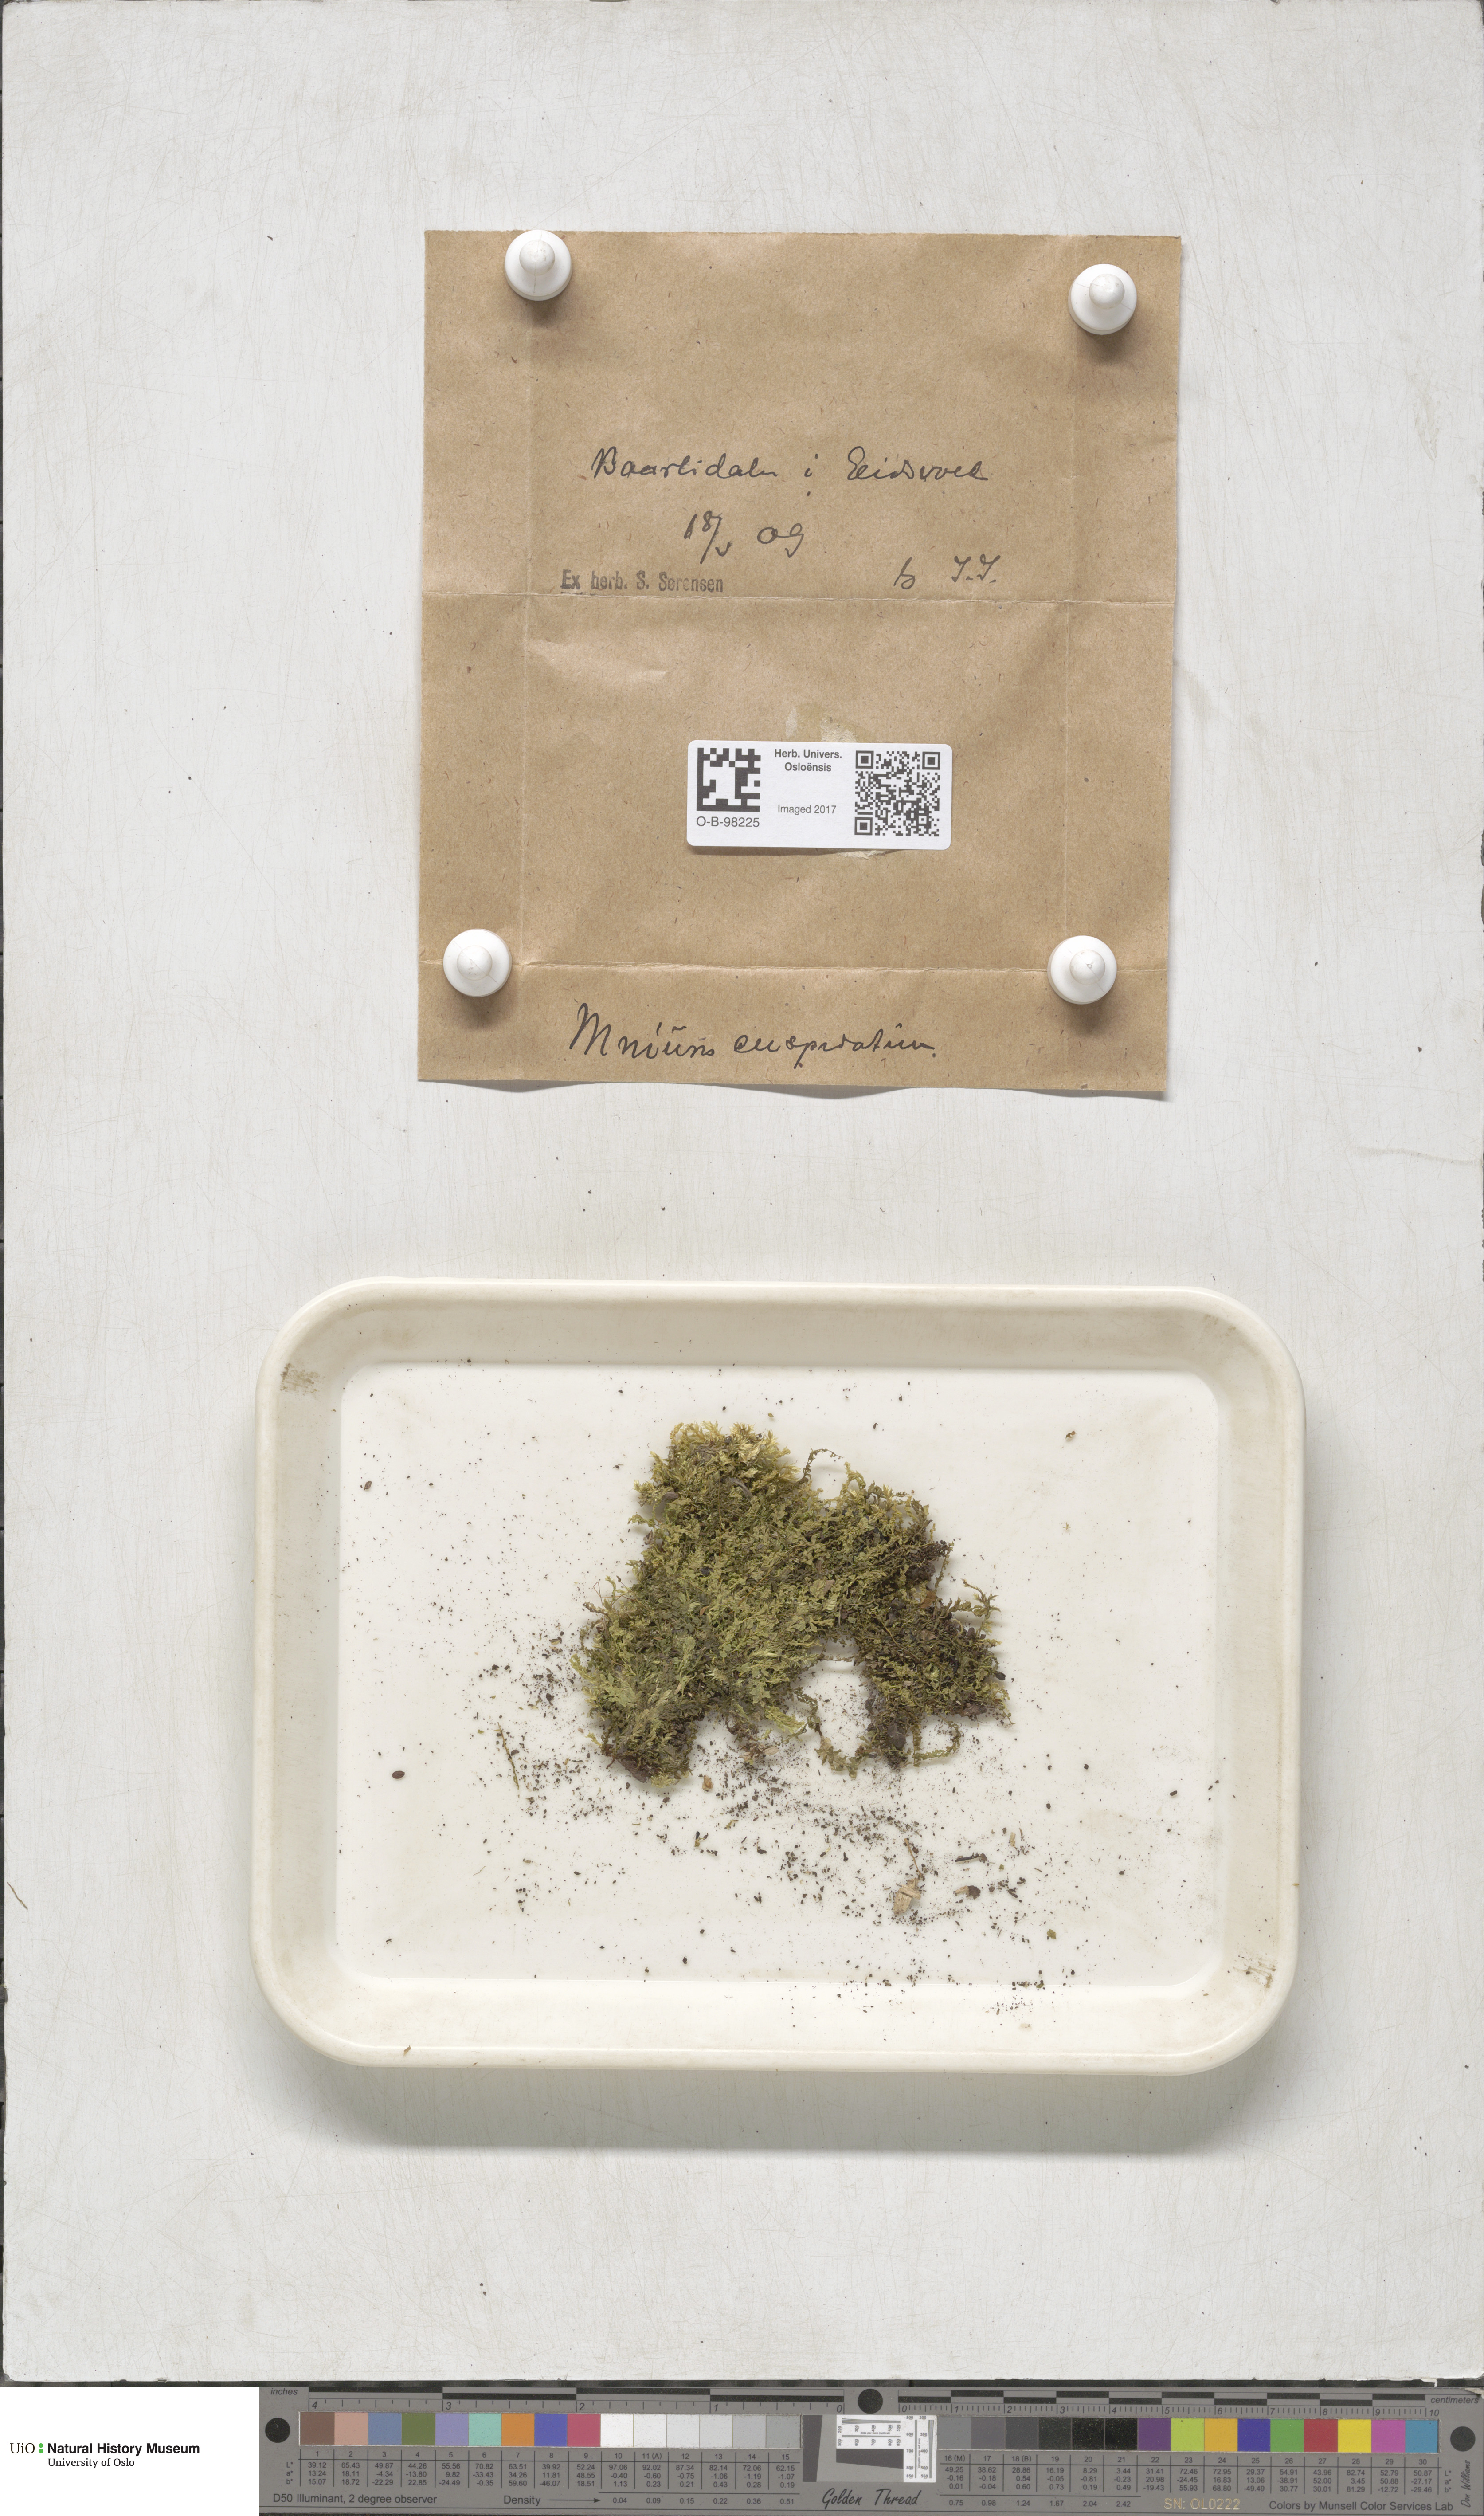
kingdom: Plantae
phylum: Bryophyta
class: Bryopsida
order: Bryales
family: Mniaceae
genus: Plagiomnium
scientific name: Plagiomnium cuspidatum
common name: Woodsy leafy moss
